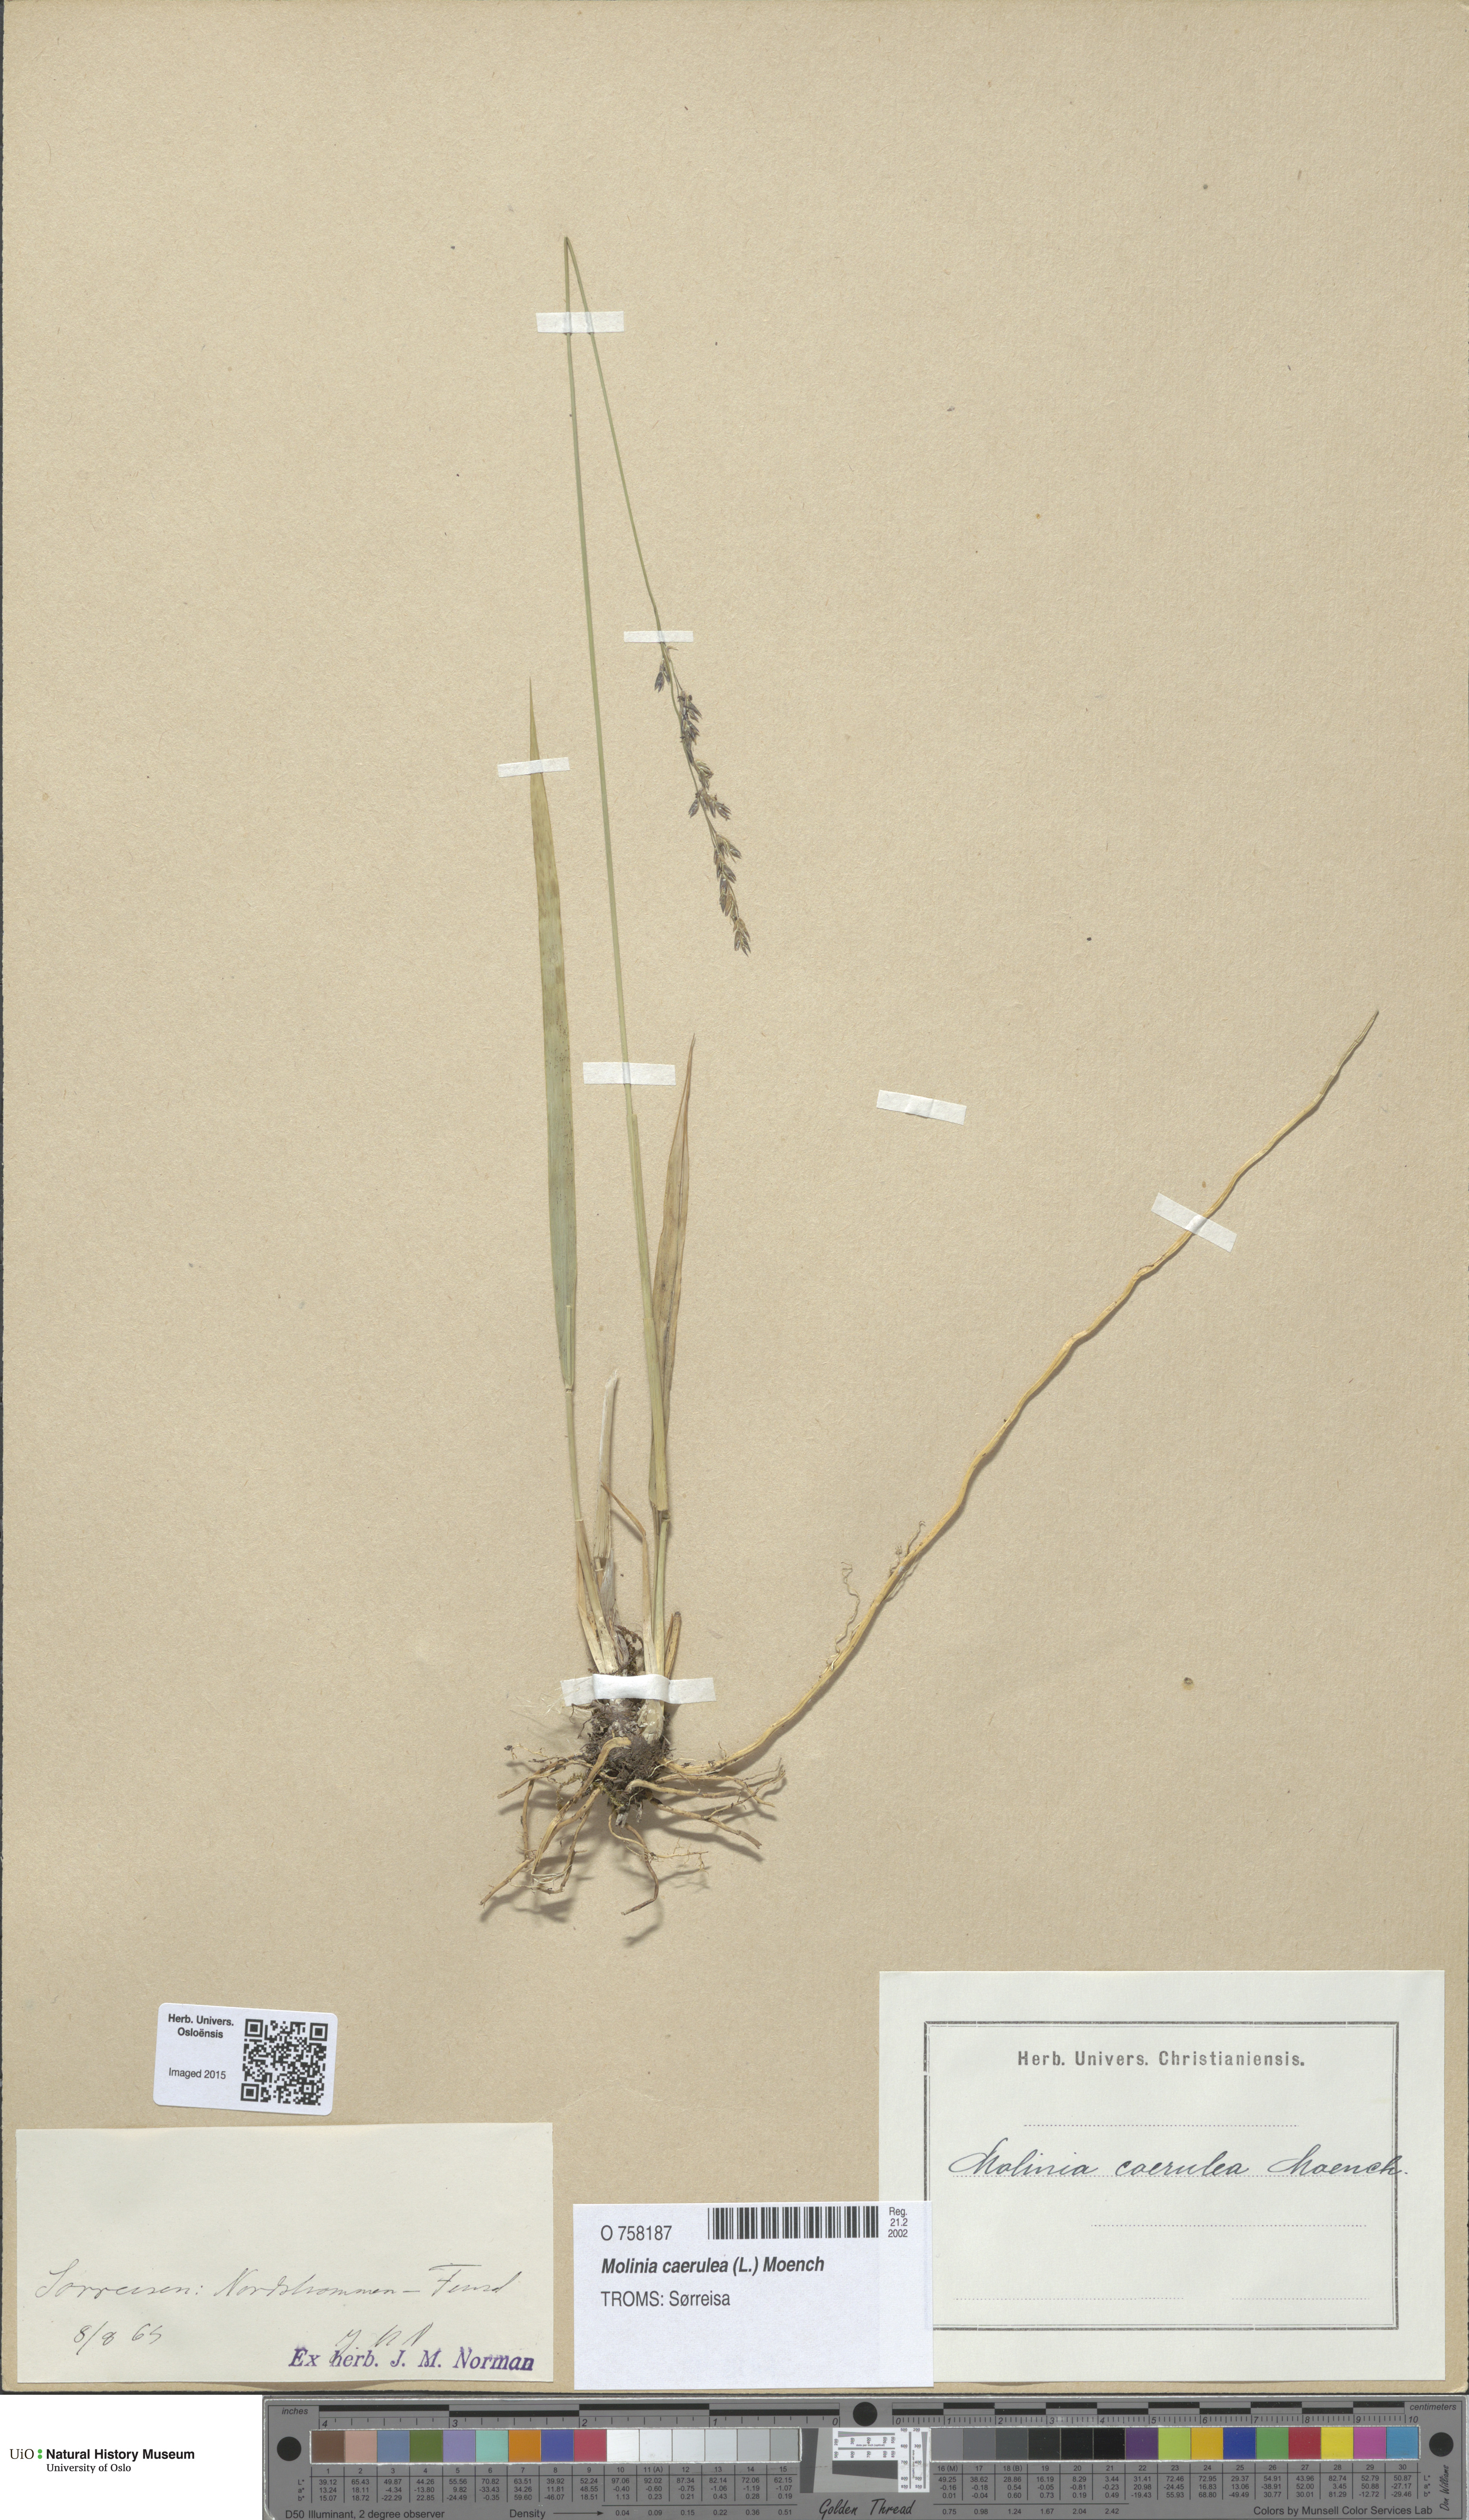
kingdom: Plantae
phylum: Tracheophyta
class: Liliopsida
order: Poales
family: Poaceae
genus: Molinia
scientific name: Molinia caerulea
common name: Purple moor-grass
